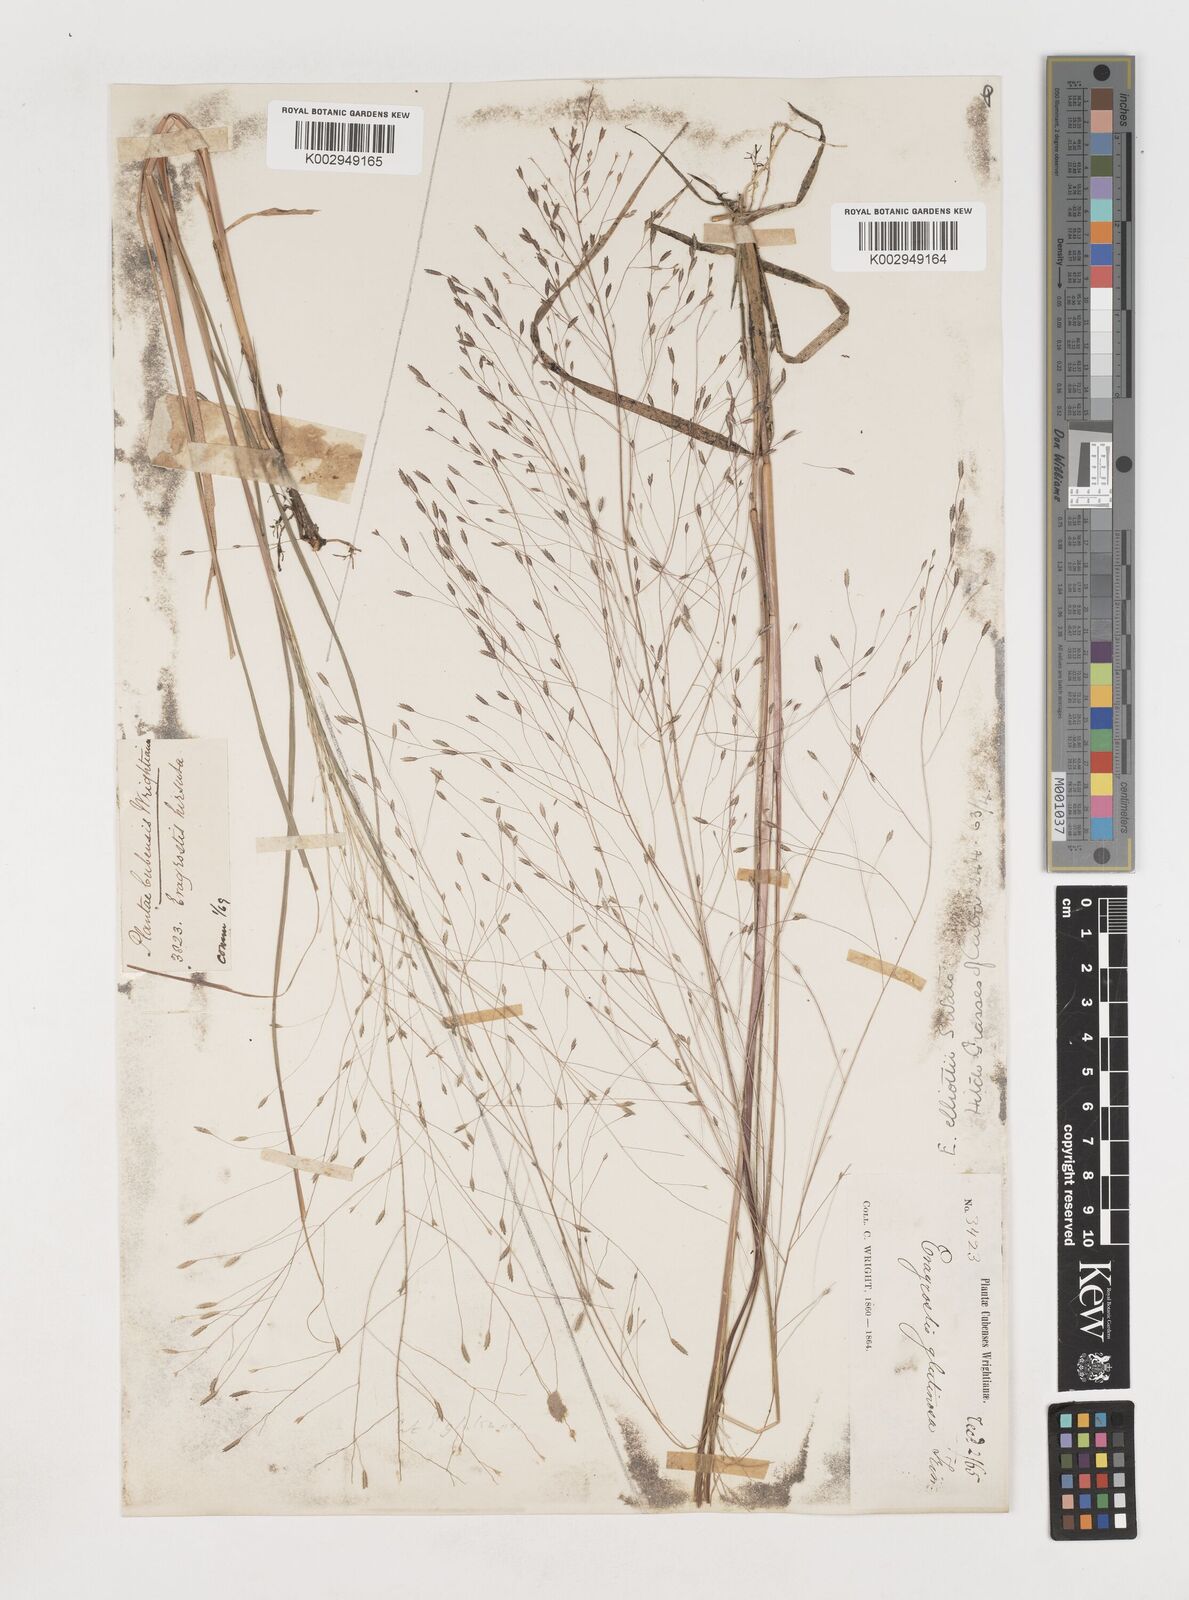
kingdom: Plantae
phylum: Tracheophyta
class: Liliopsida
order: Poales
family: Poaceae
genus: Eragrostis
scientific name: Eragrostis elliottii
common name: Elliott's love grass
